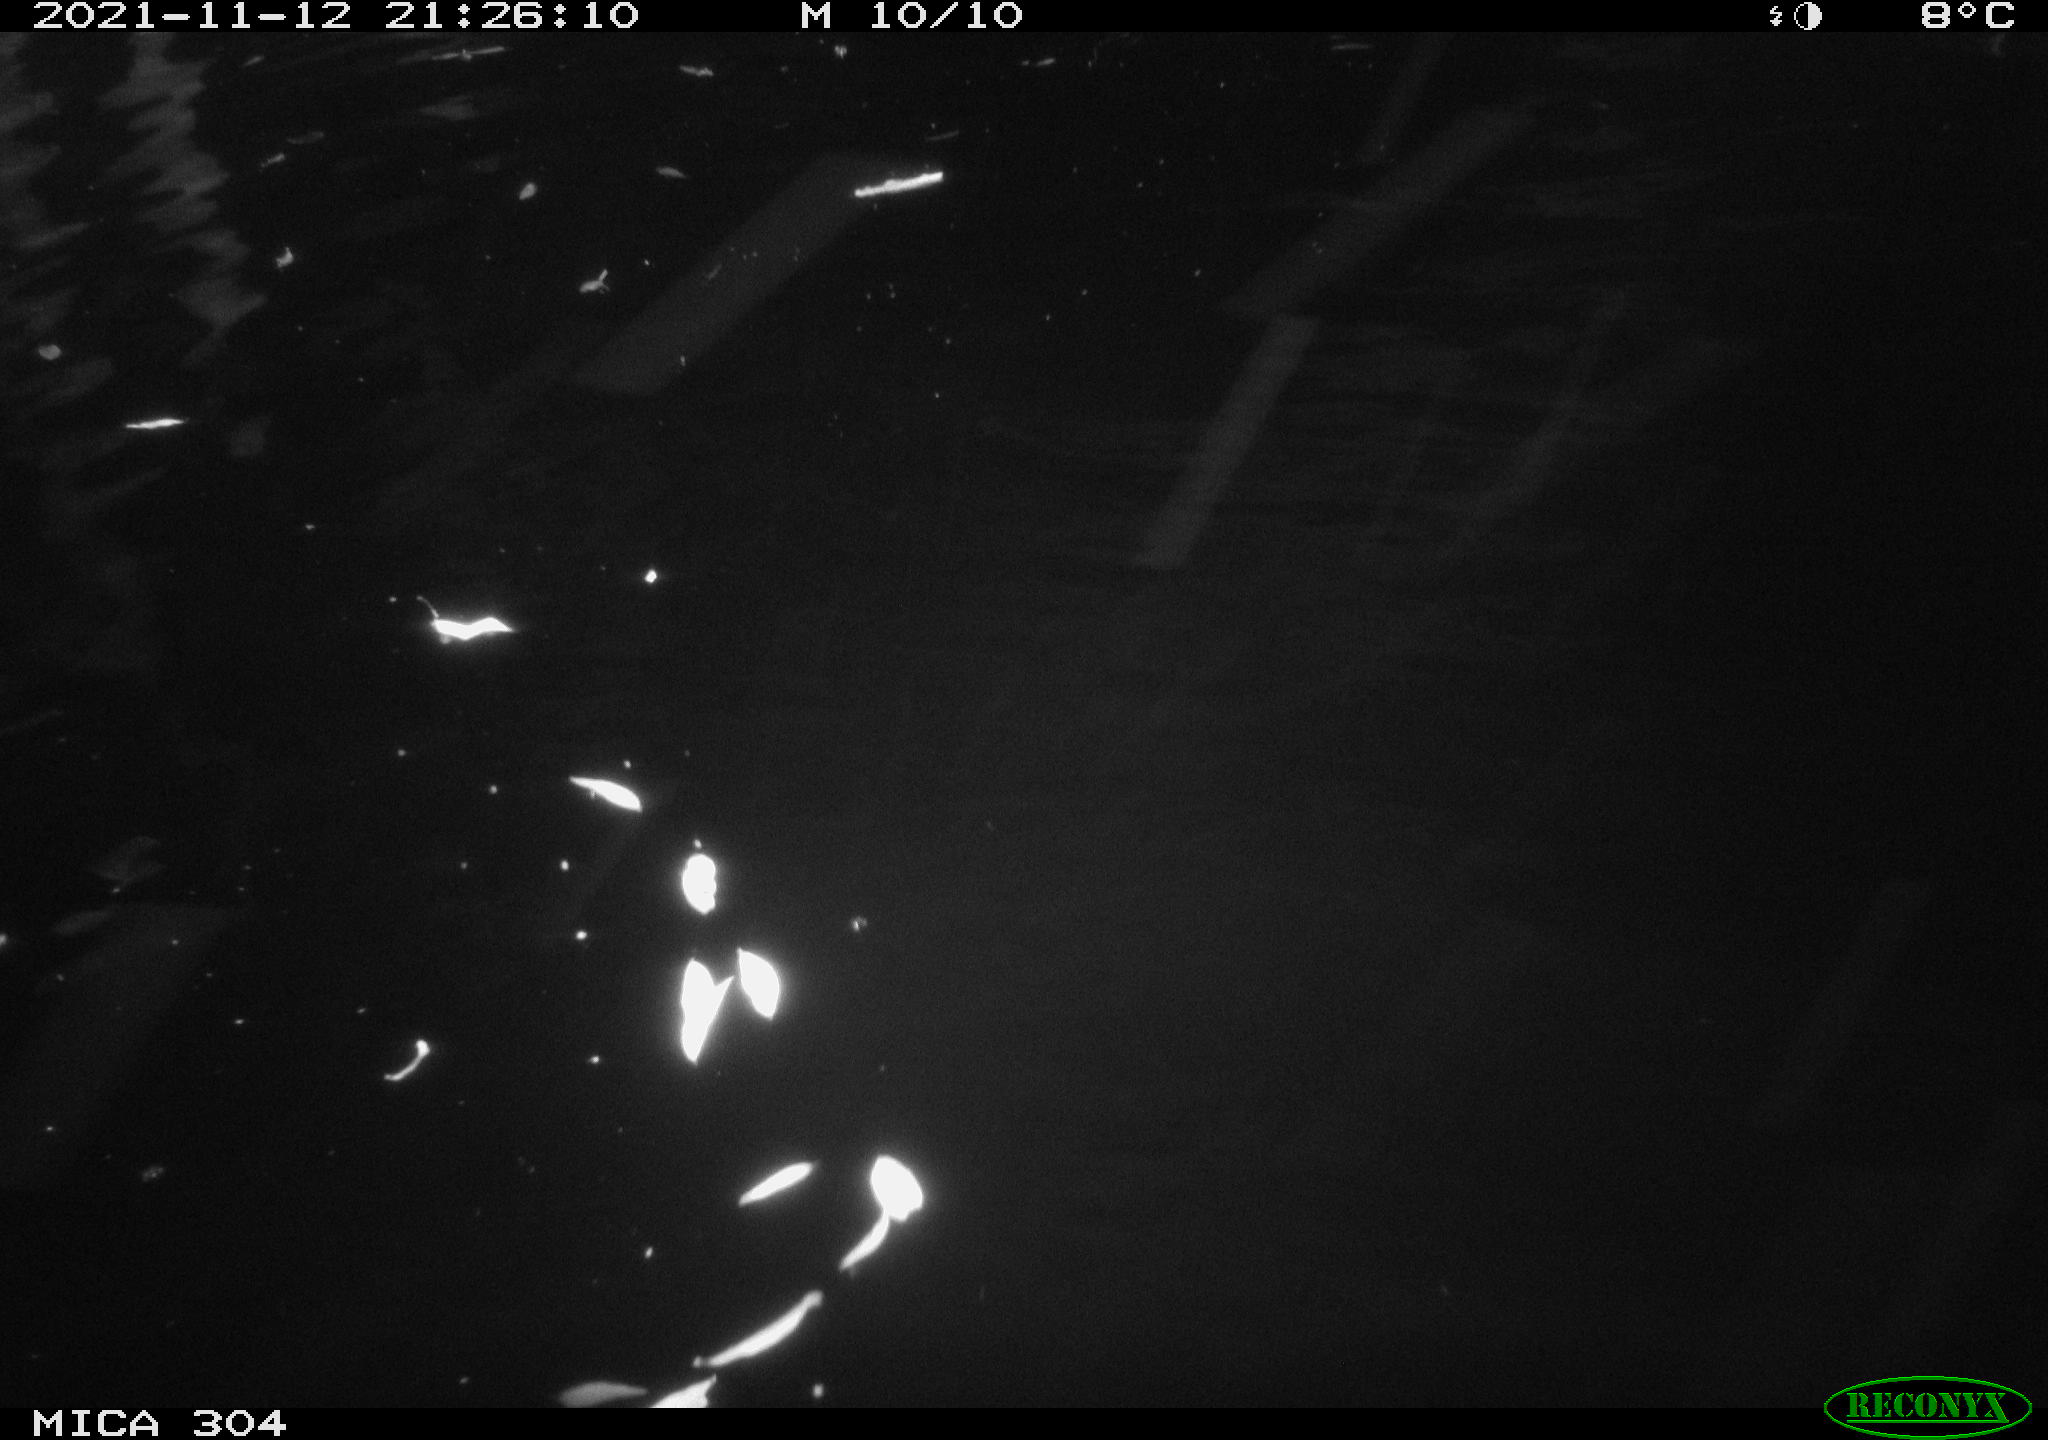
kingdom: Animalia
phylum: Chordata
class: Aves
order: Anseriformes
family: Anatidae
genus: Anas
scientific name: Anas platyrhynchos
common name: Mallard
